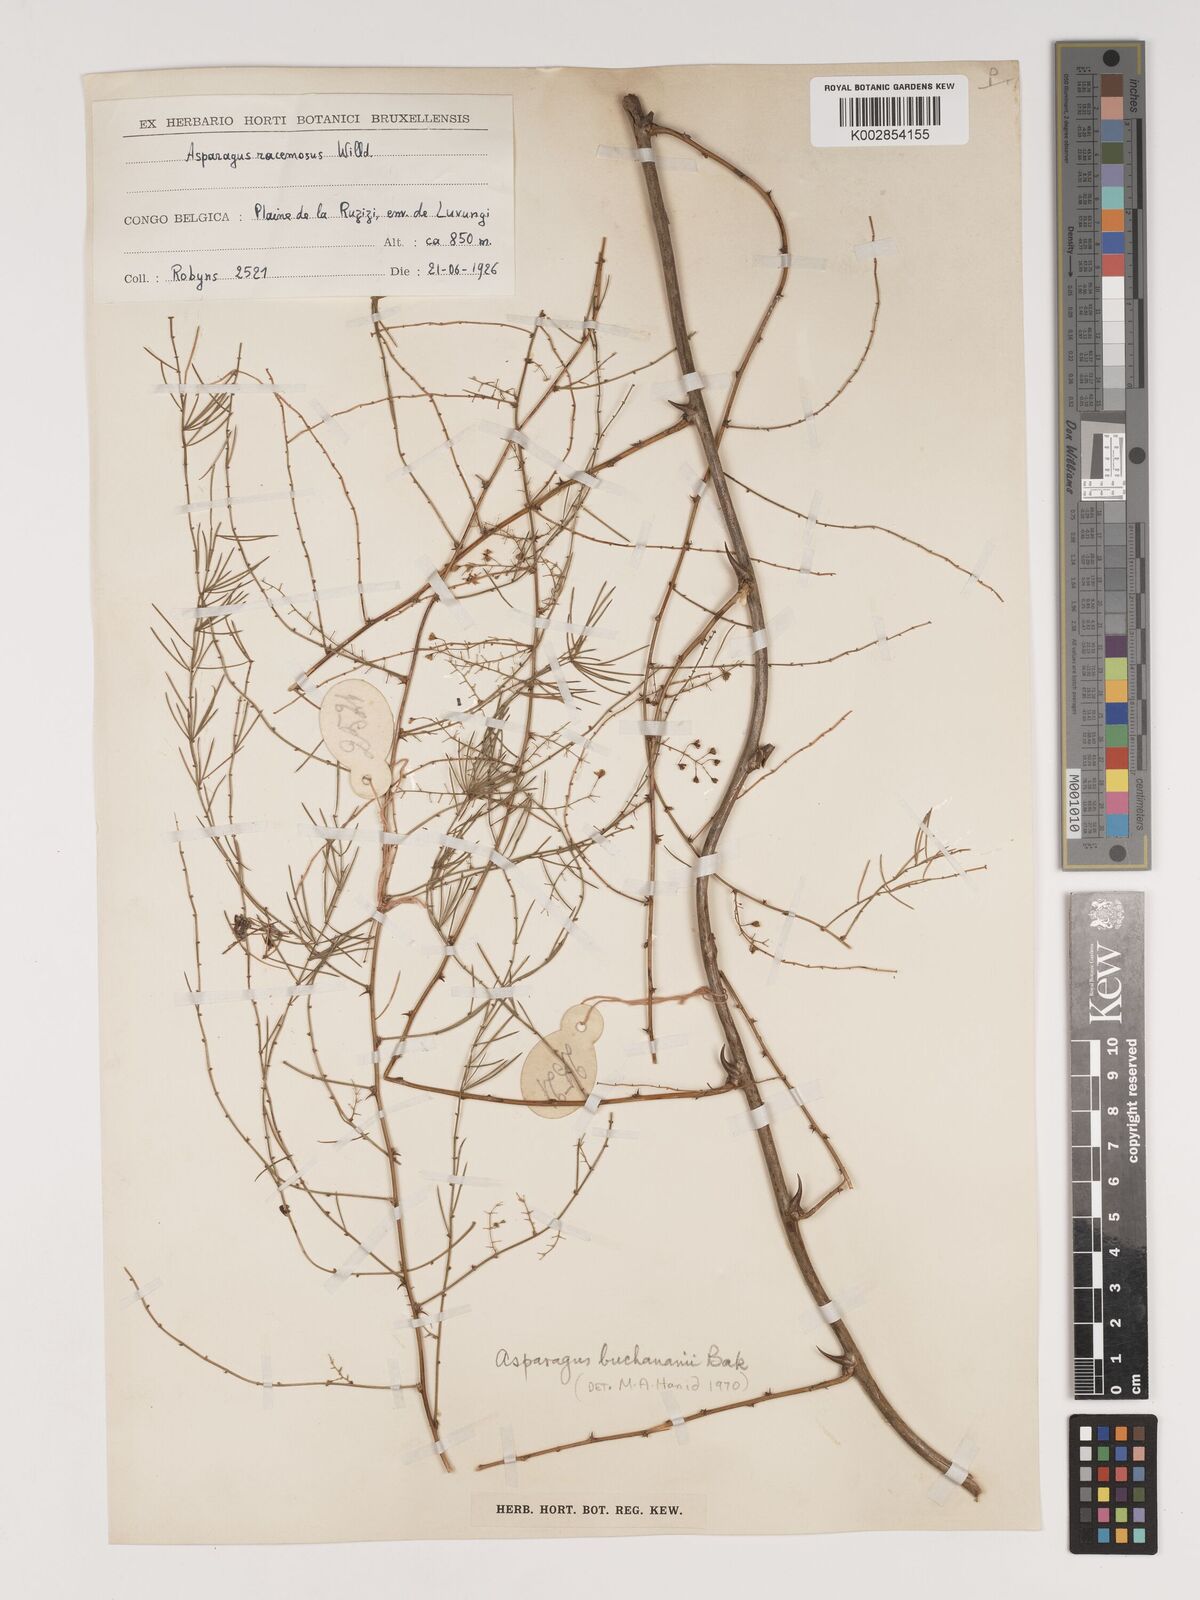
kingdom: Plantae
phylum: Tracheophyta
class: Liliopsida
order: Asparagales
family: Asparagaceae
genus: Asparagus
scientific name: Asparagus buchananii
